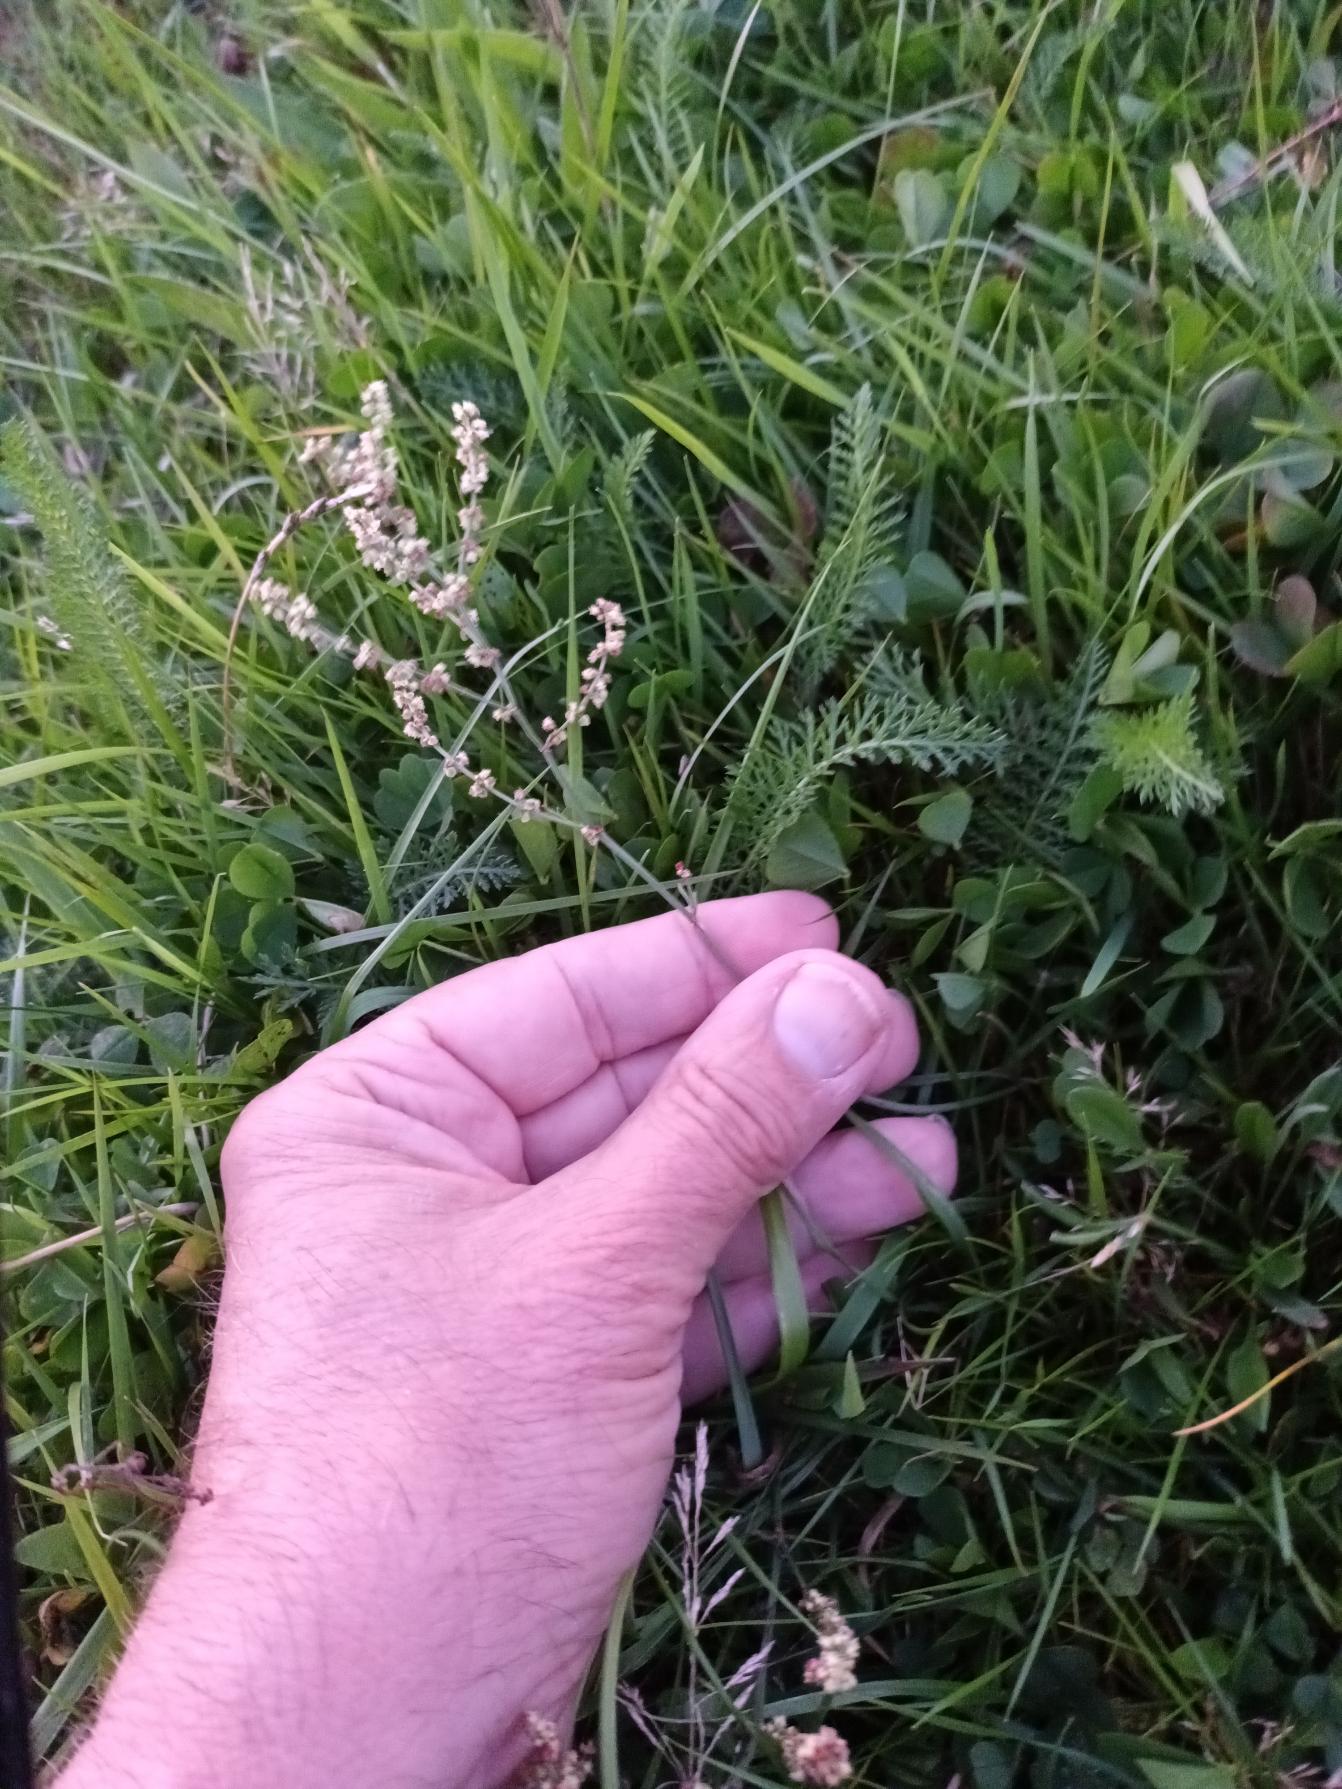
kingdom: Plantae
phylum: Tracheophyta
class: Magnoliopsida
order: Caryophyllales
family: Polygonaceae
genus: Rumex
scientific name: Rumex acetosella
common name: Rødknæ
